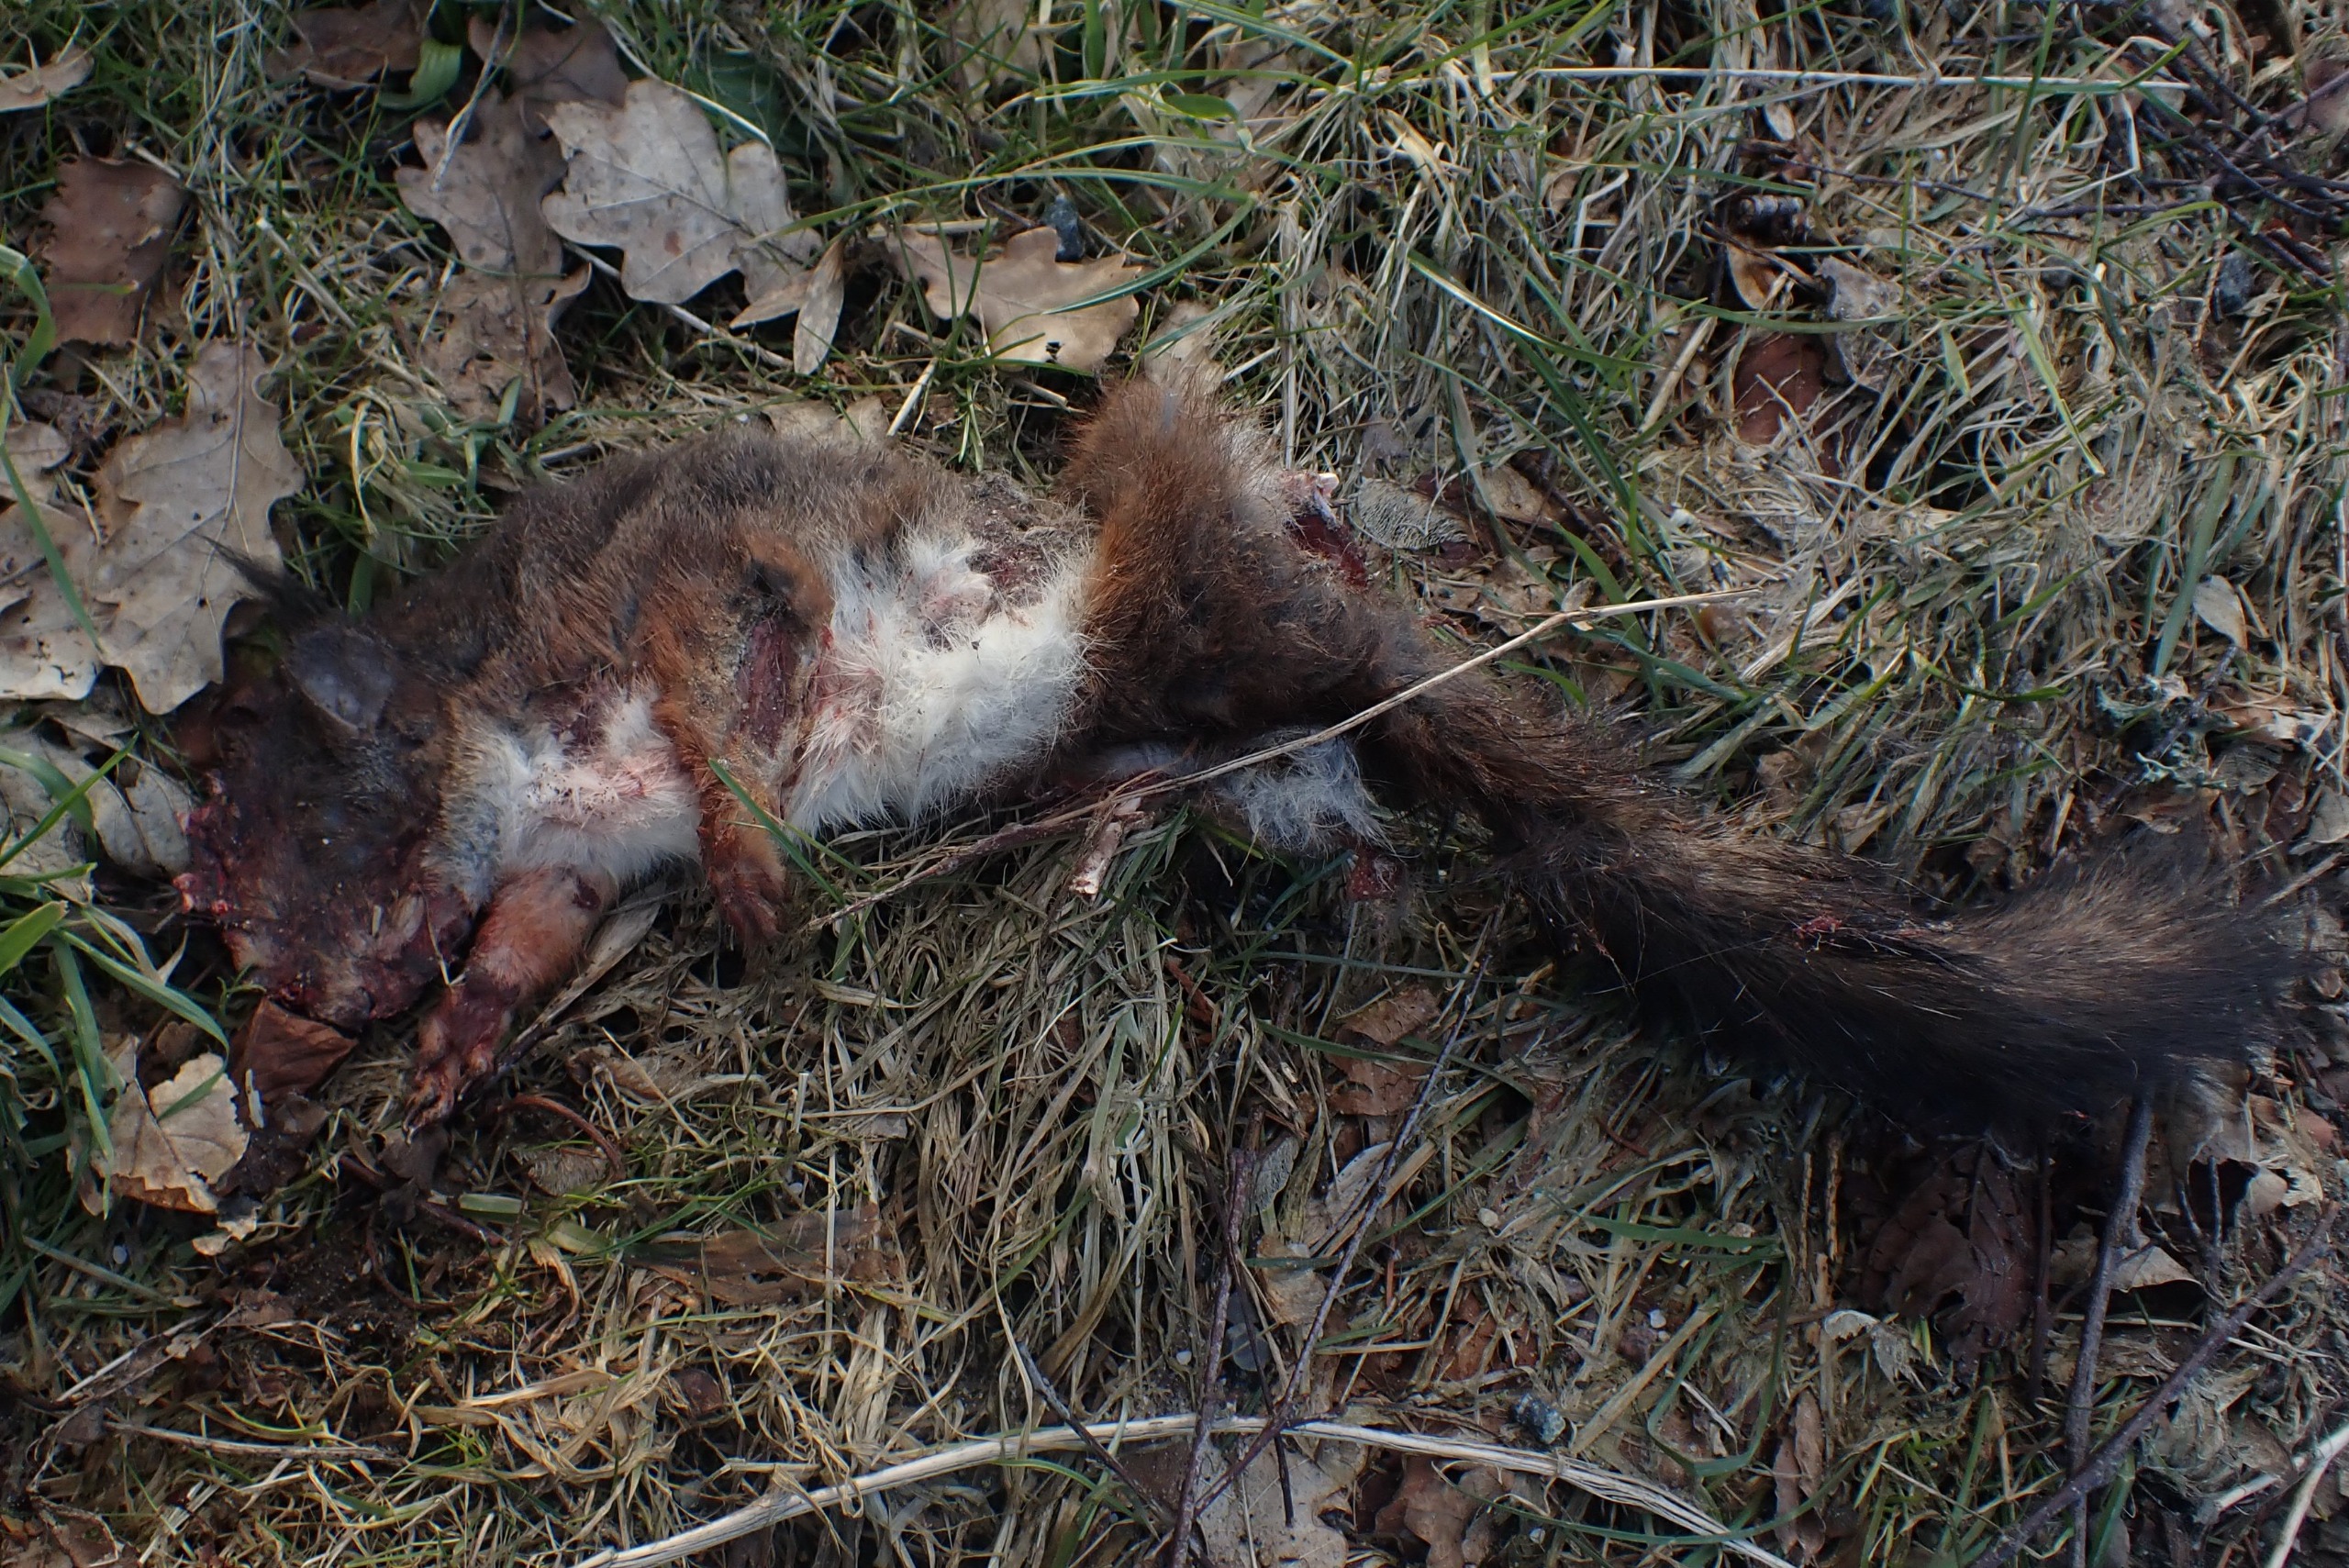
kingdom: Animalia
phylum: Chordata
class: Mammalia
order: Rodentia
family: Sciuridae
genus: Sciurus
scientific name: Sciurus vulgaris
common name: Egern
